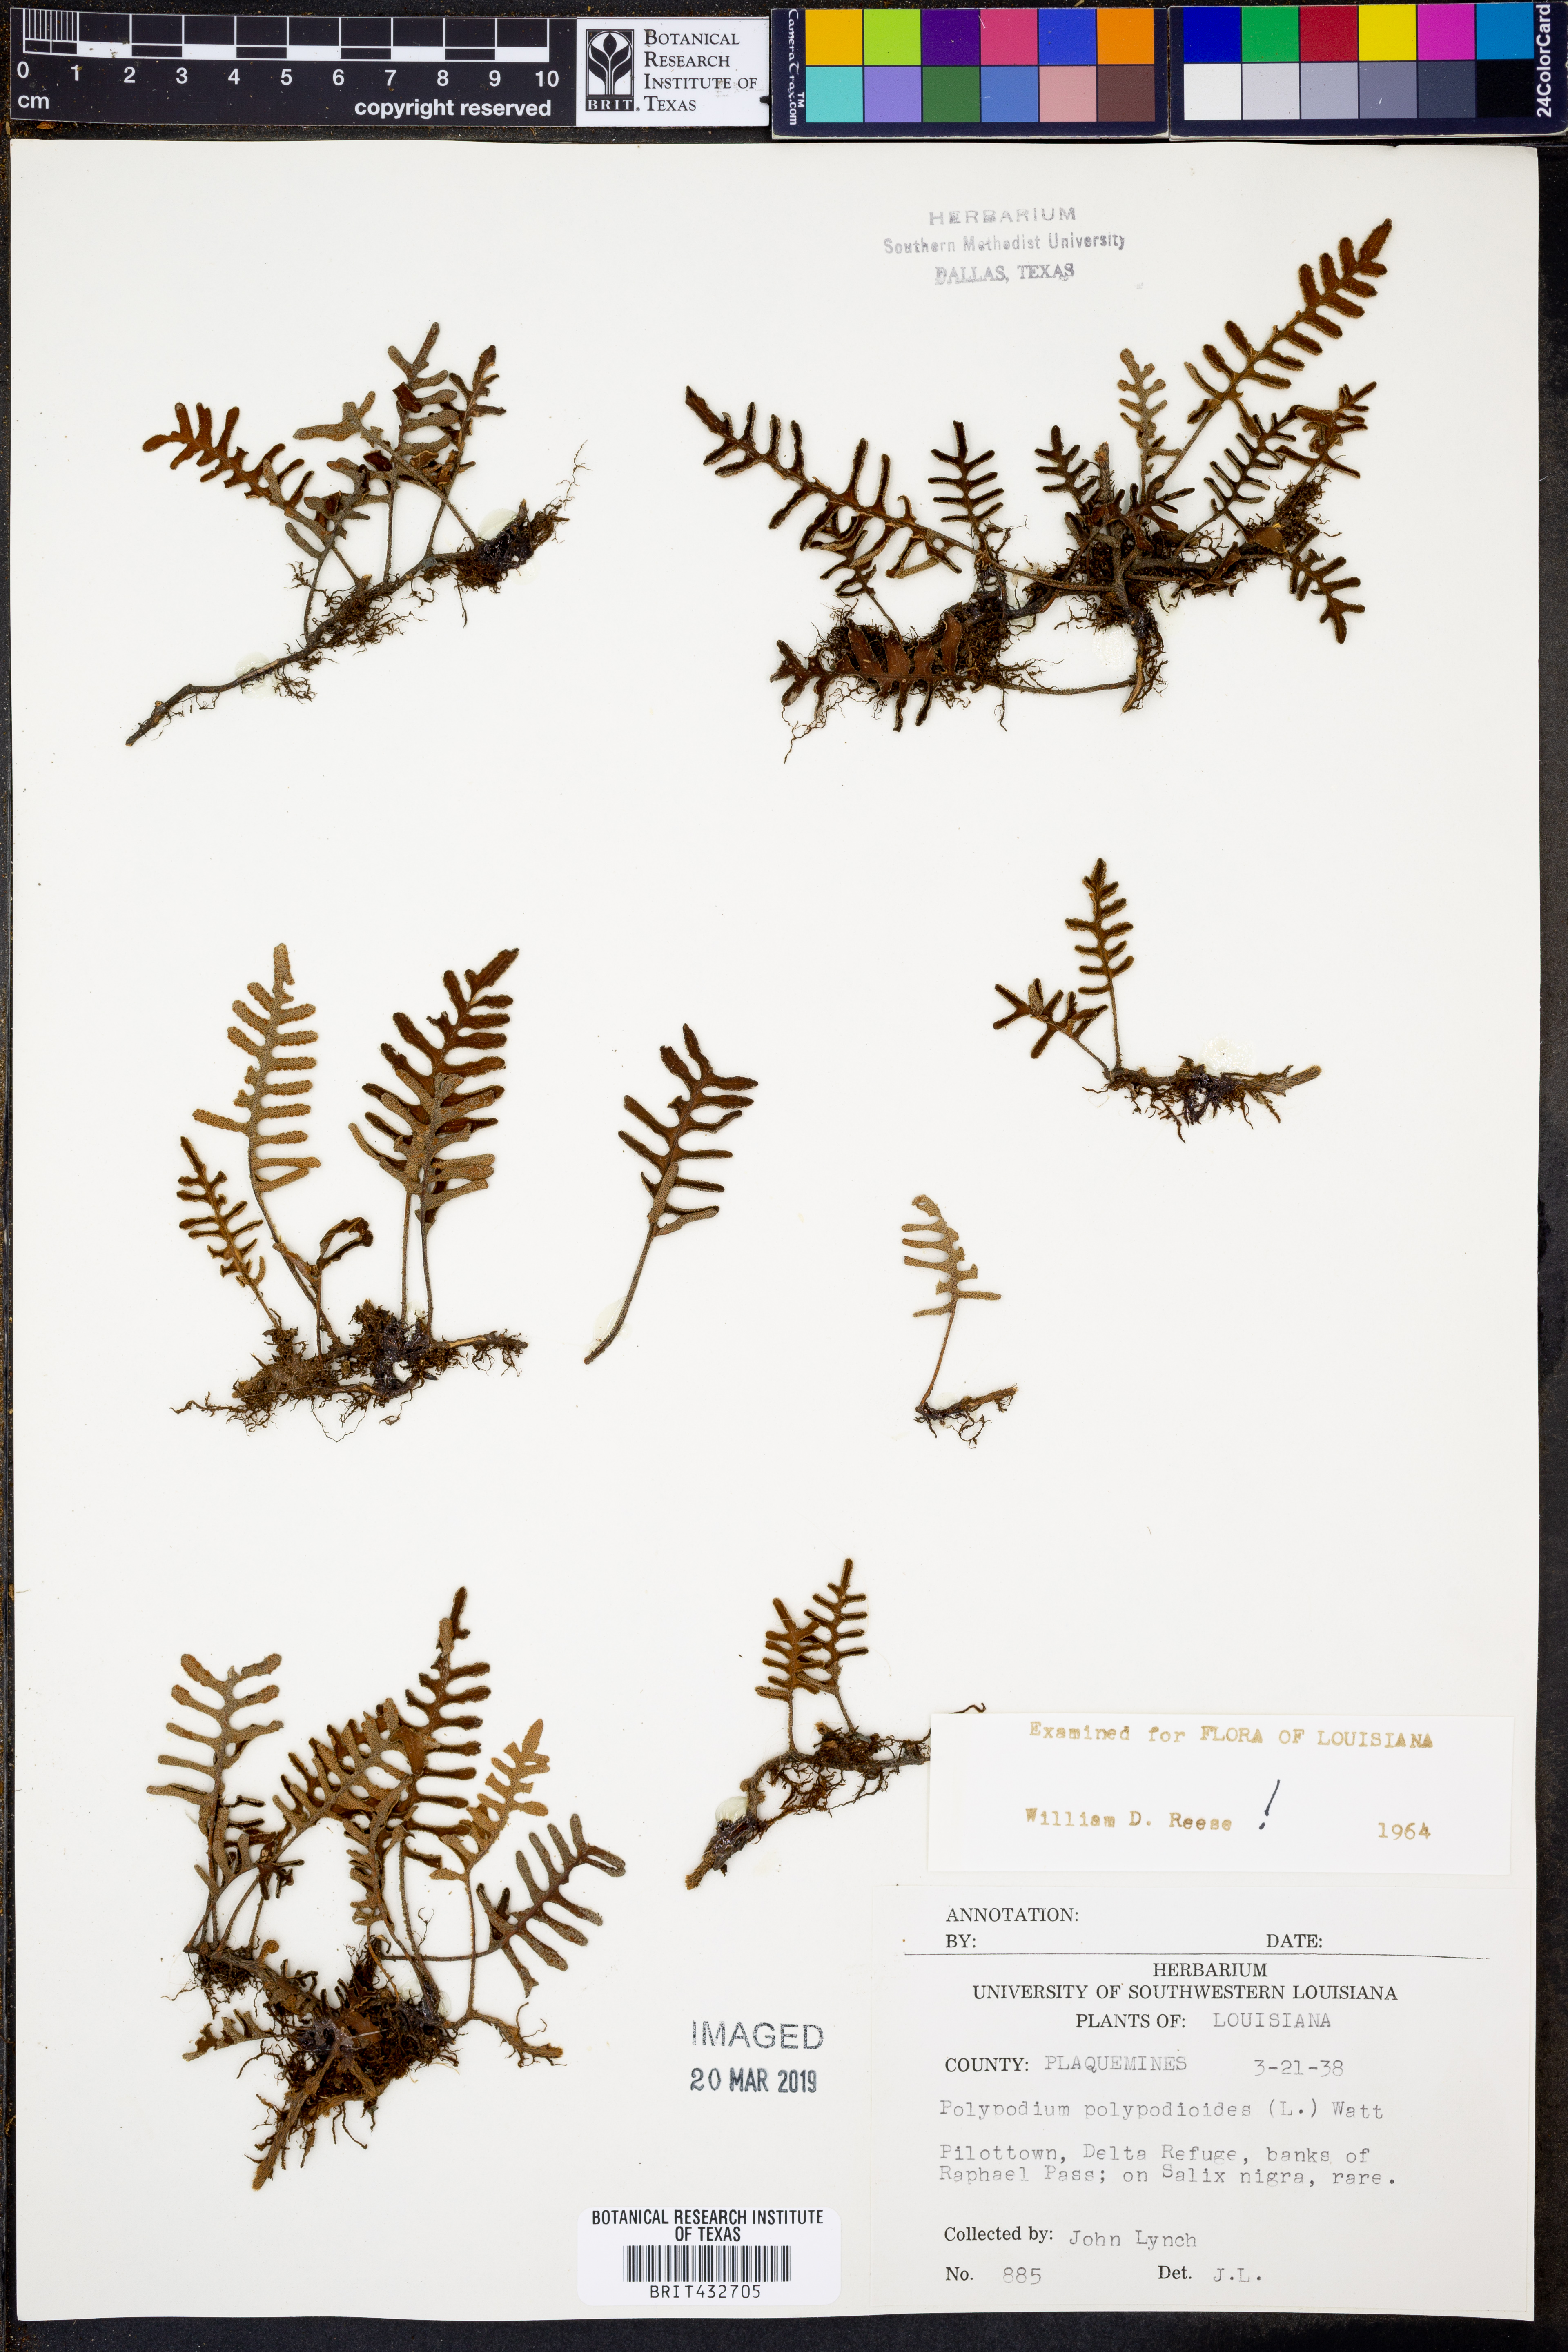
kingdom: Plantae
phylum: Tracheophyta
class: Polypodiopsida
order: Polypodiales
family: Polypodiaceae
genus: Pleopeltis
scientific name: Pleopeltis polypodioides
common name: Resurrection fern
